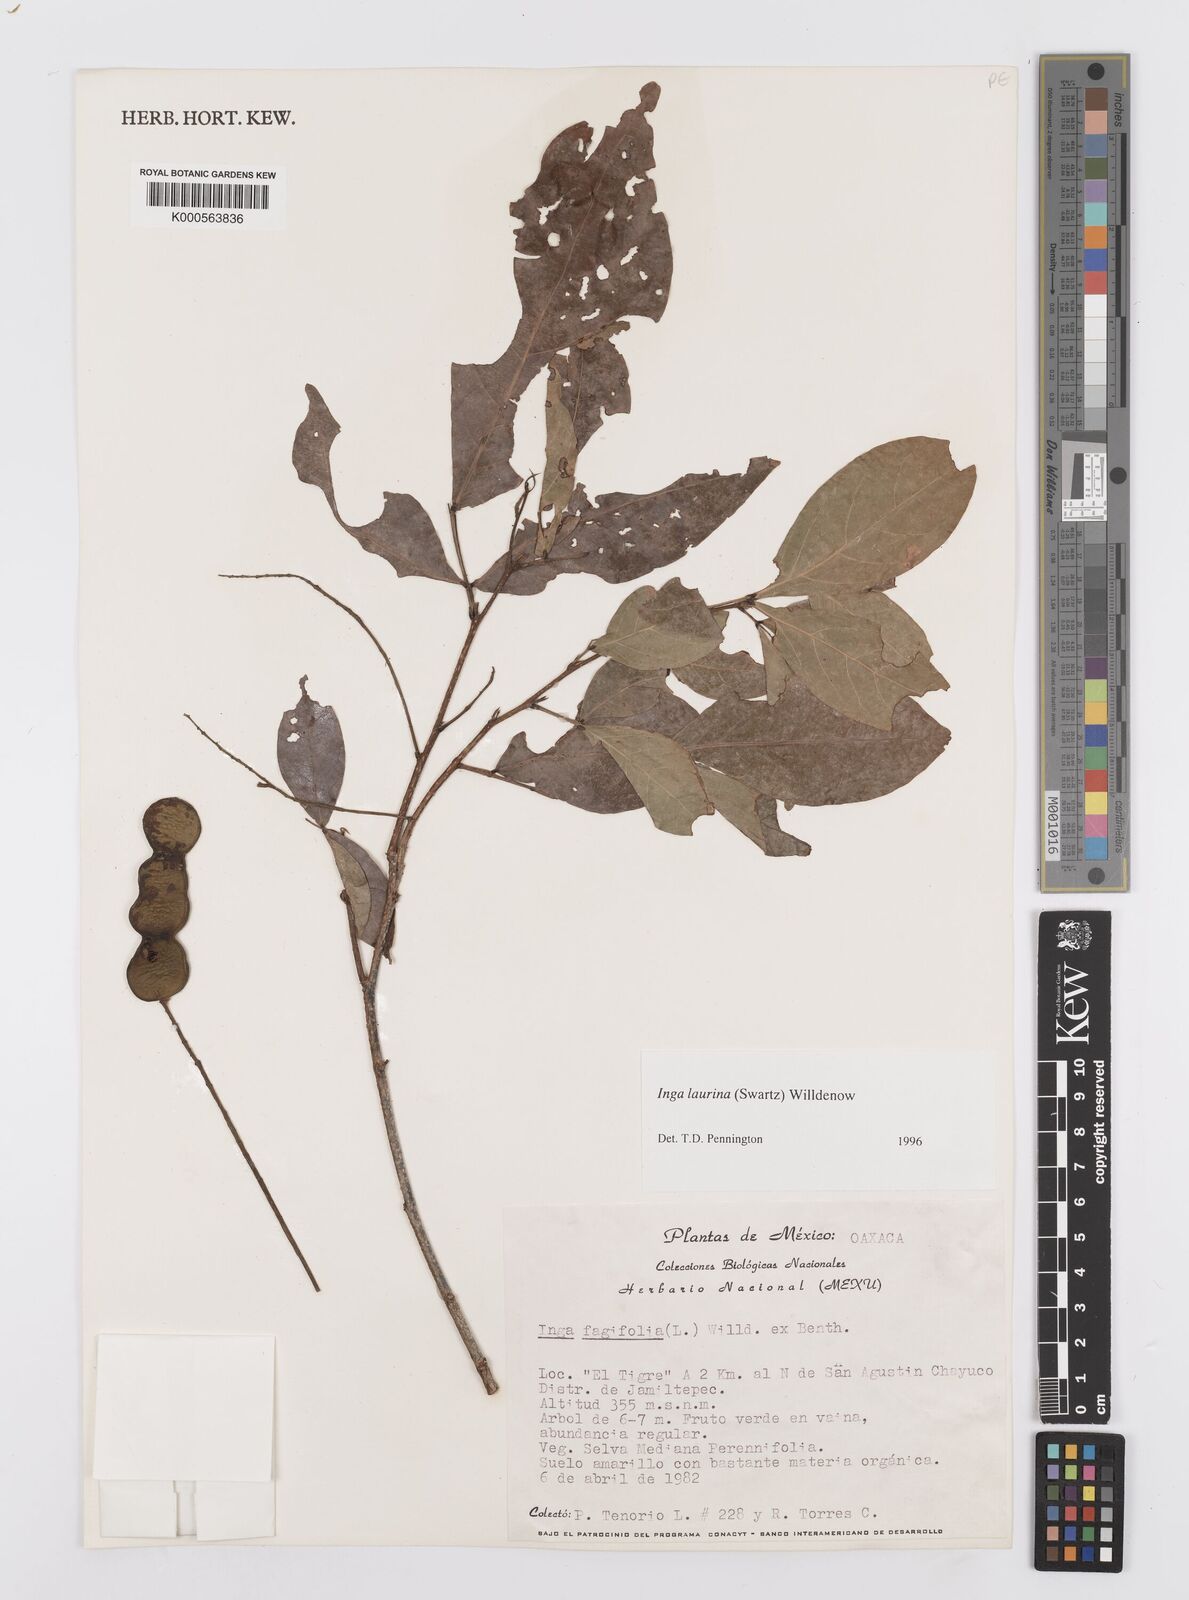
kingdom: Plantae
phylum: Tracheophyta
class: Magnoliopsida
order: Fabales
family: Fabaceae
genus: Inga
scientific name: Inga laurina
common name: Red wood
